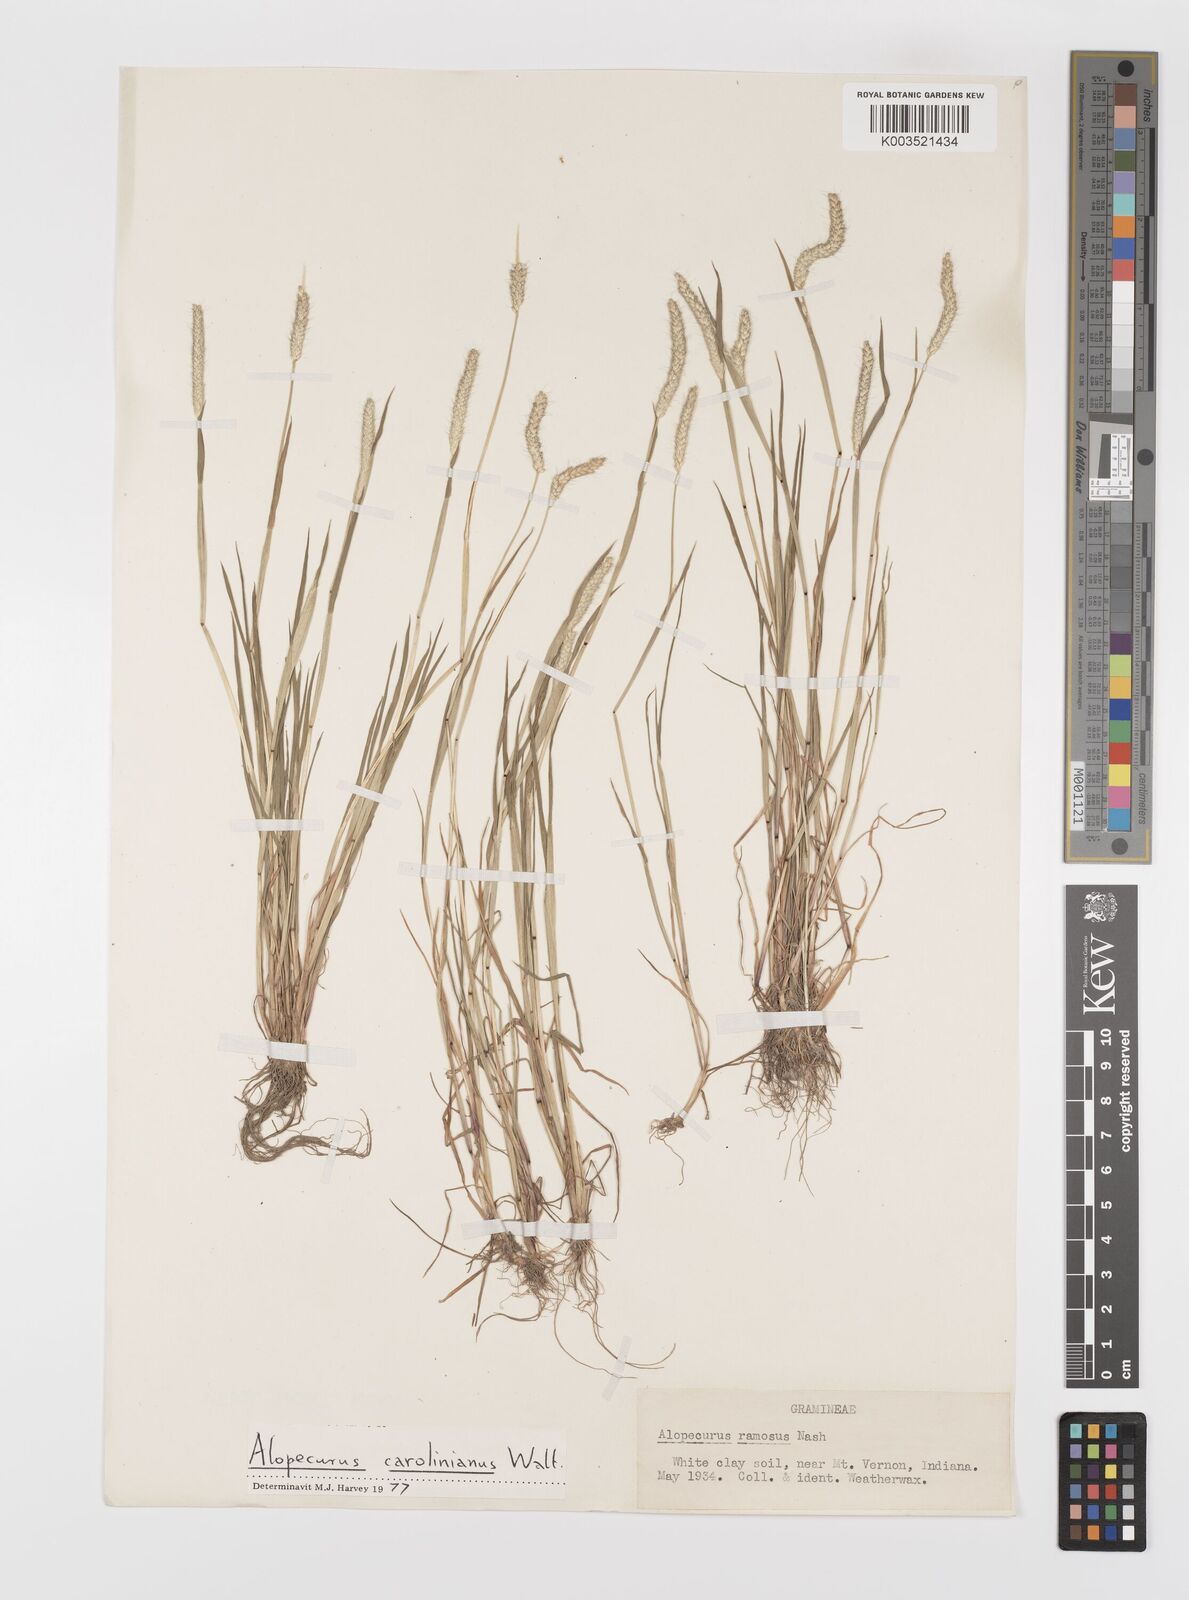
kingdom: Plantae
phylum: Tracheophyta
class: Liliopsida
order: Poales
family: Poaceae
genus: Alopecurus
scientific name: Alopecurus carolinianus
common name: Tufted foxtail
